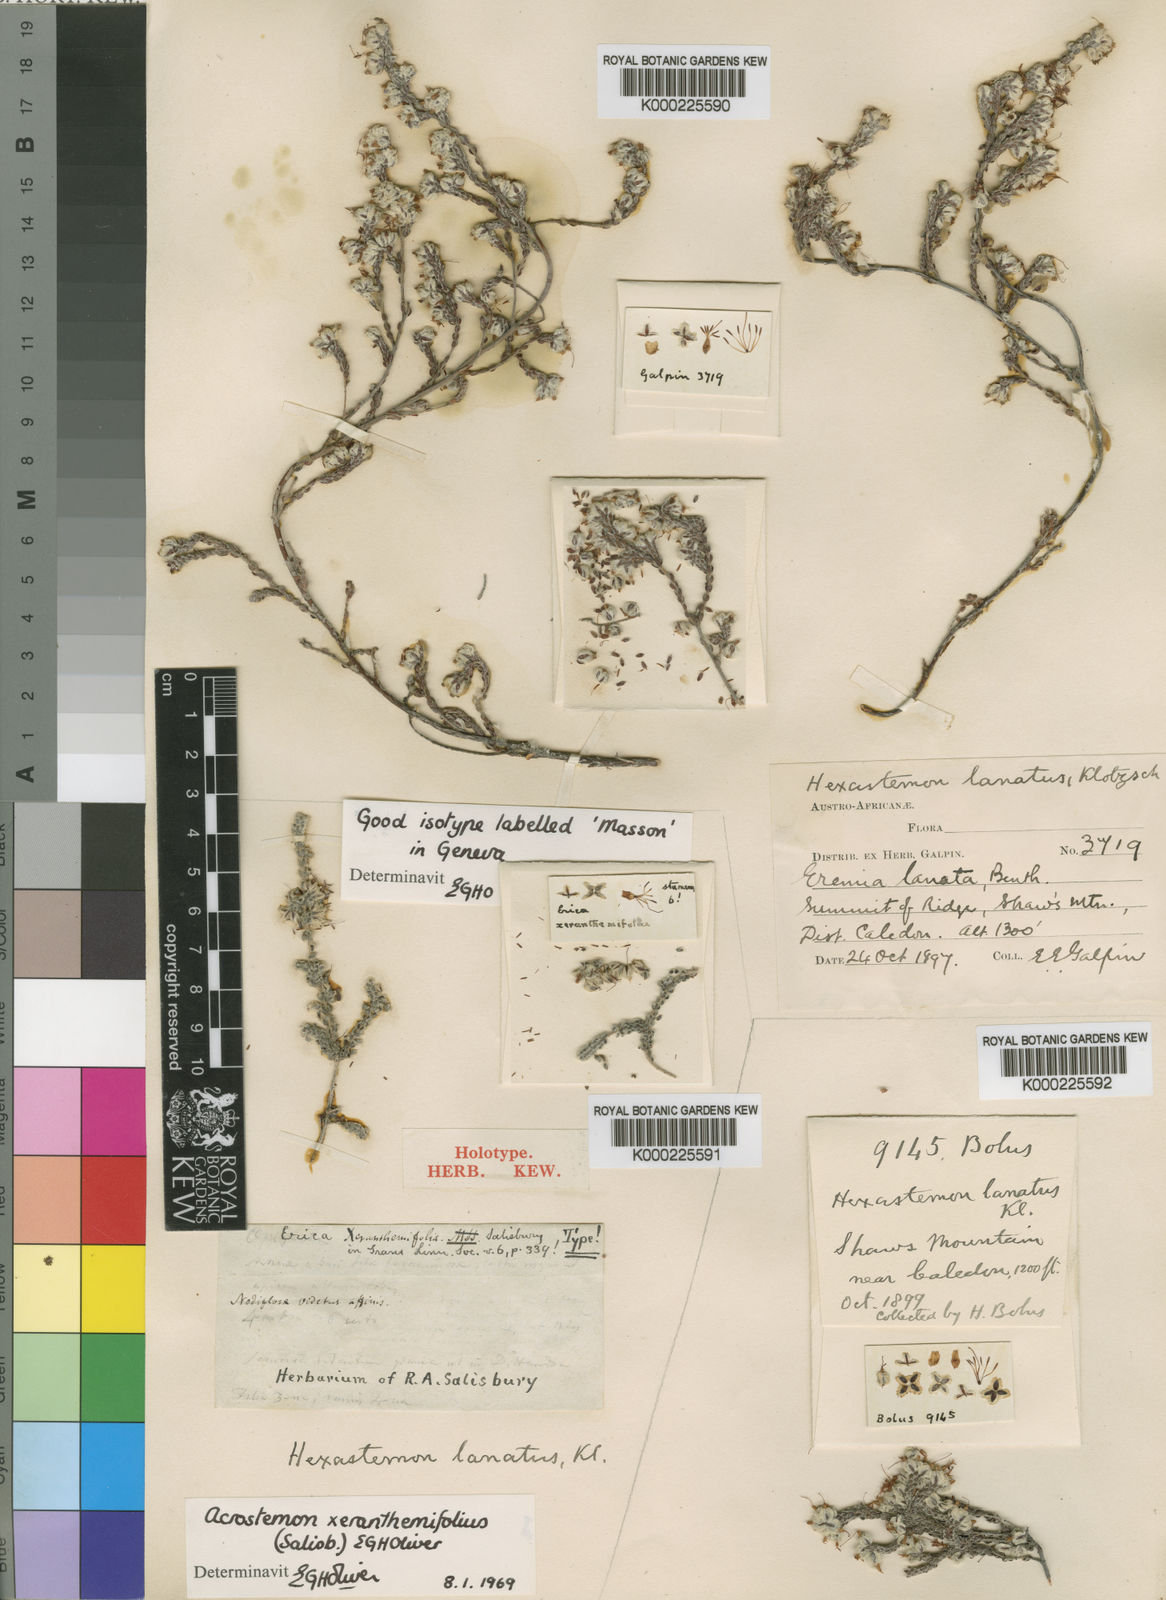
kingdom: Plantae
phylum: Tracheophyta
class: Magnoliopsida
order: Ericales
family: Ericaceae
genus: Erica
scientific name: Erica xeranthemifolia
